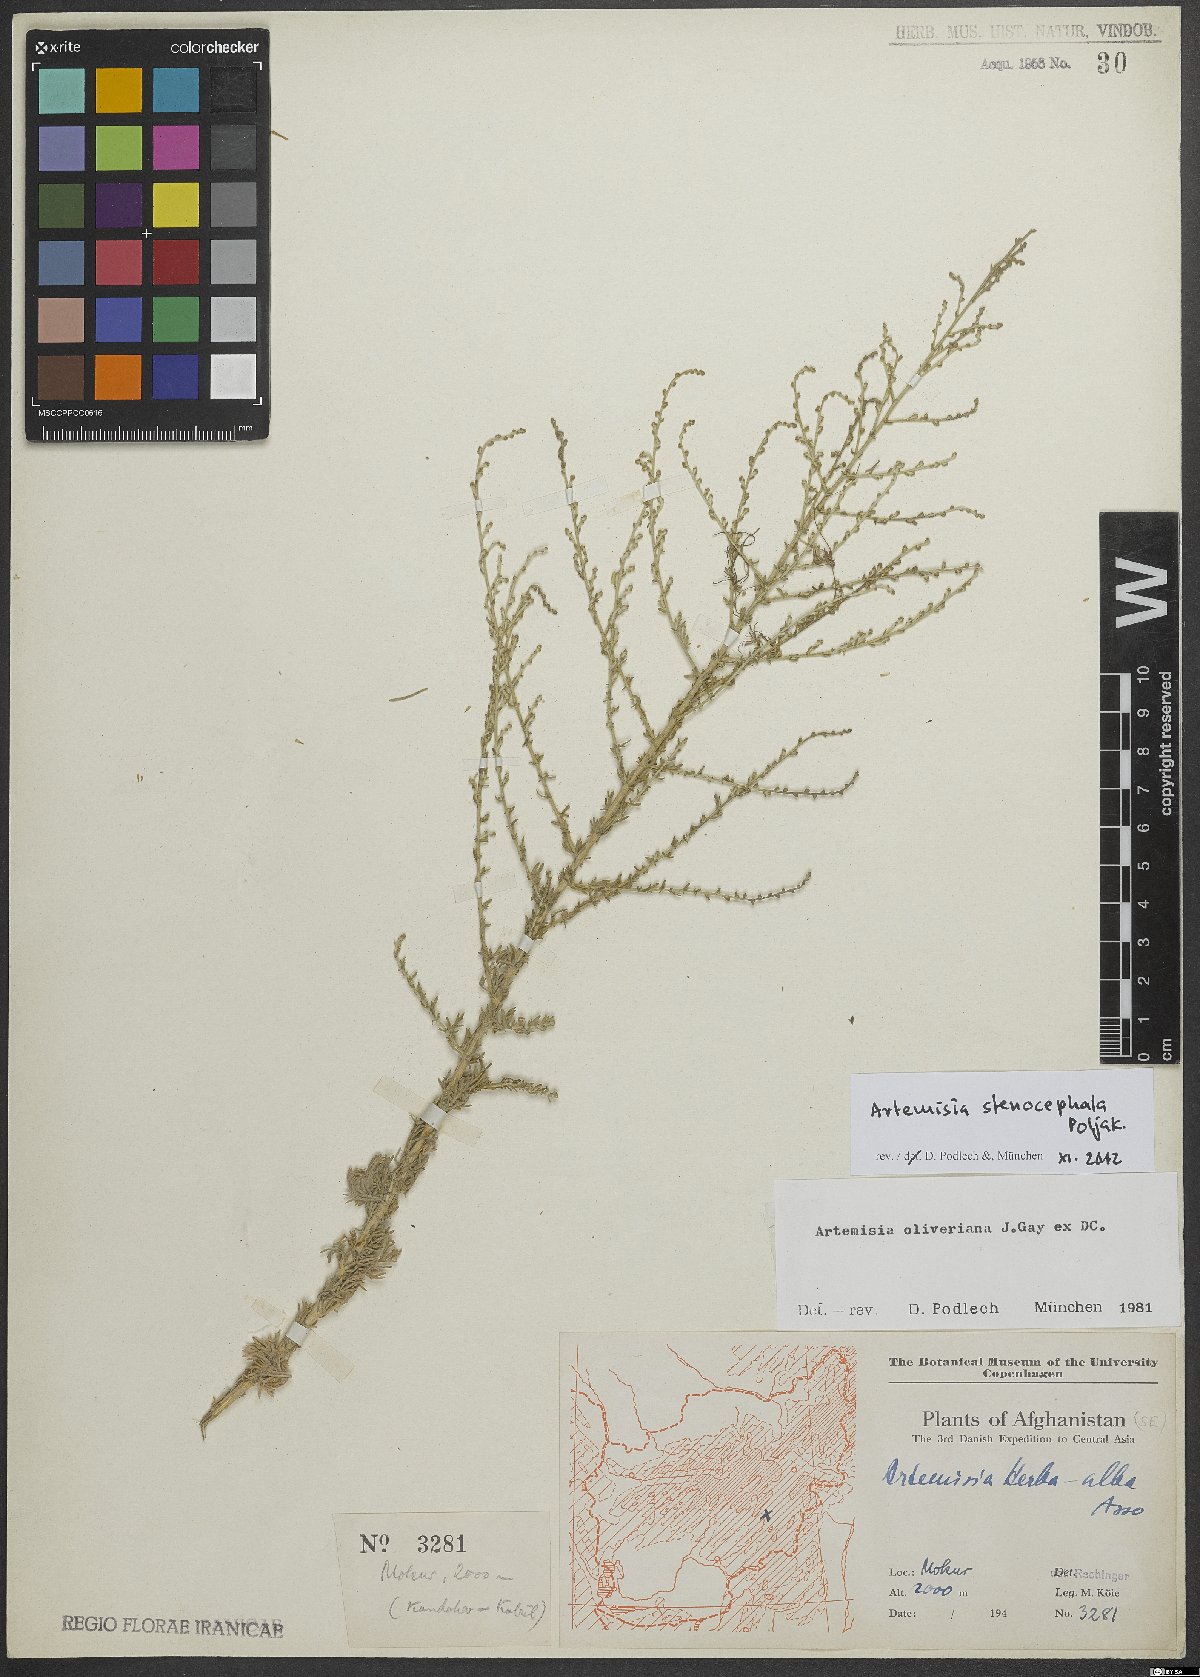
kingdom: Plantae
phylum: Tracheophyta
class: Magnoliopsida
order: Asterales
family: Asteraceae
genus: Artemisia
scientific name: Artemisia stenocephala
